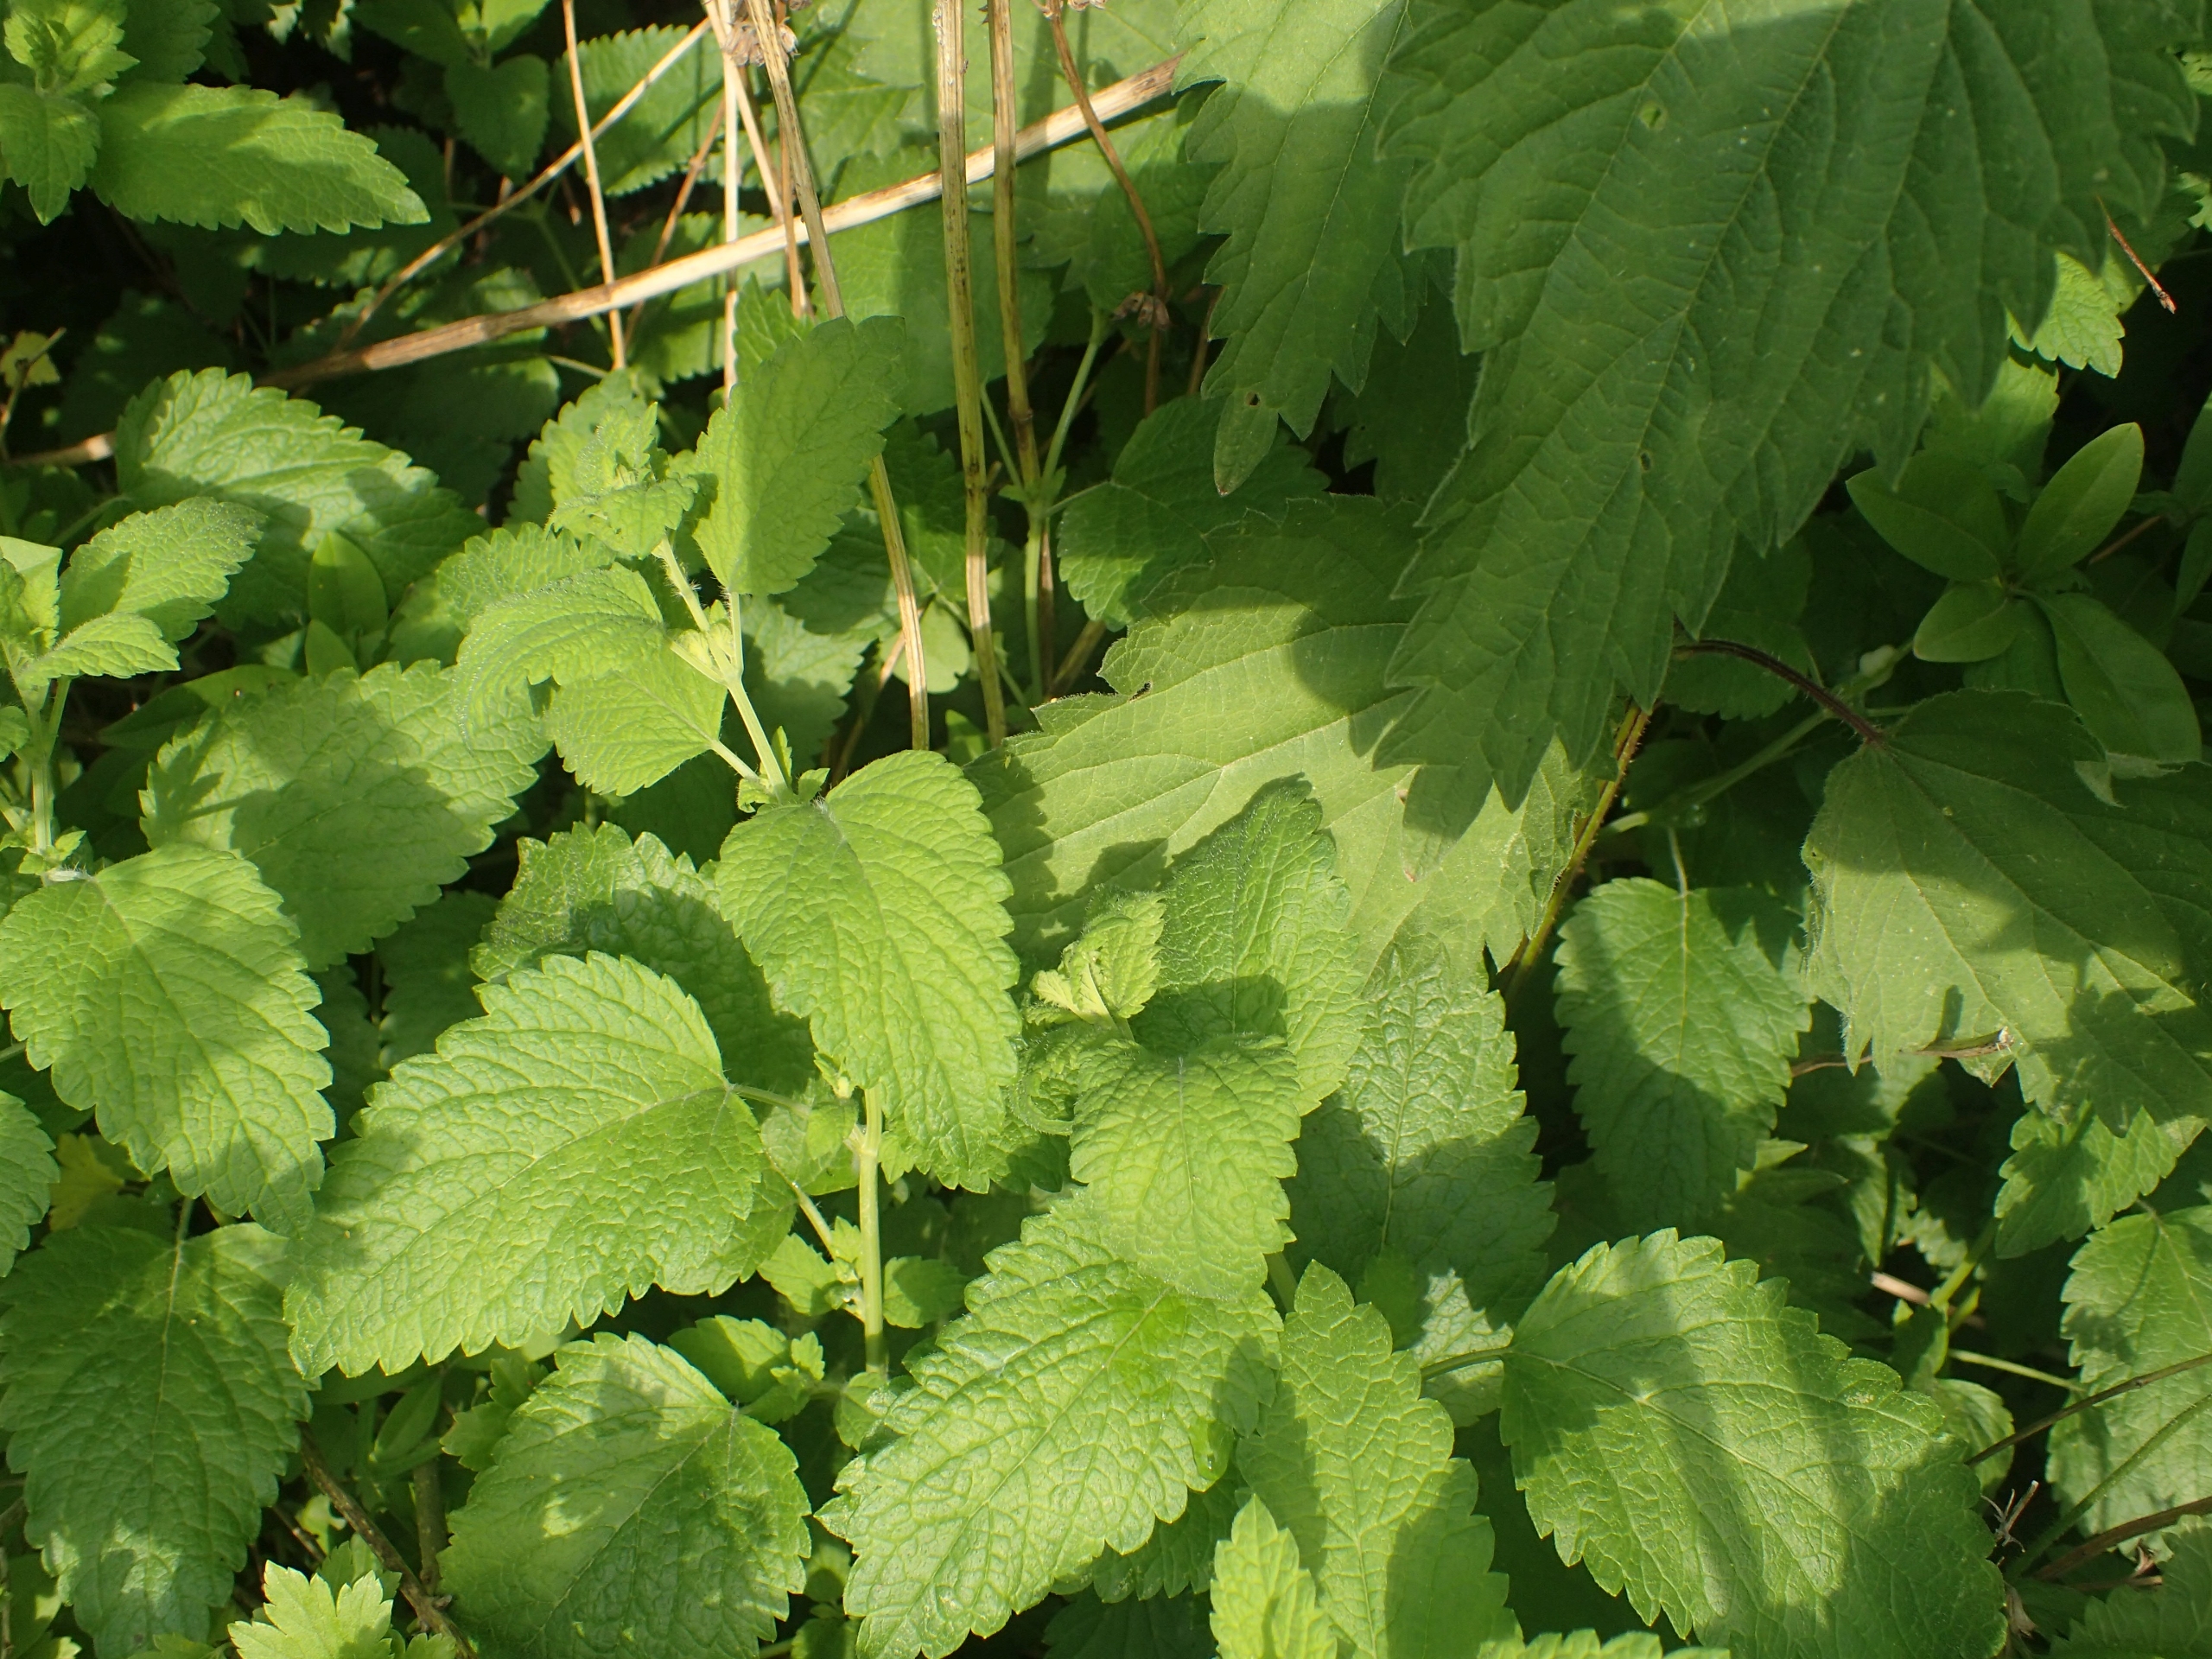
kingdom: Plantae
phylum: Tracheophyta
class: Magnoliopsida
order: Lamiales
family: Lamiaceae
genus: Melissa
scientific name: Melissa officinalis
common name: Citronmelisse
